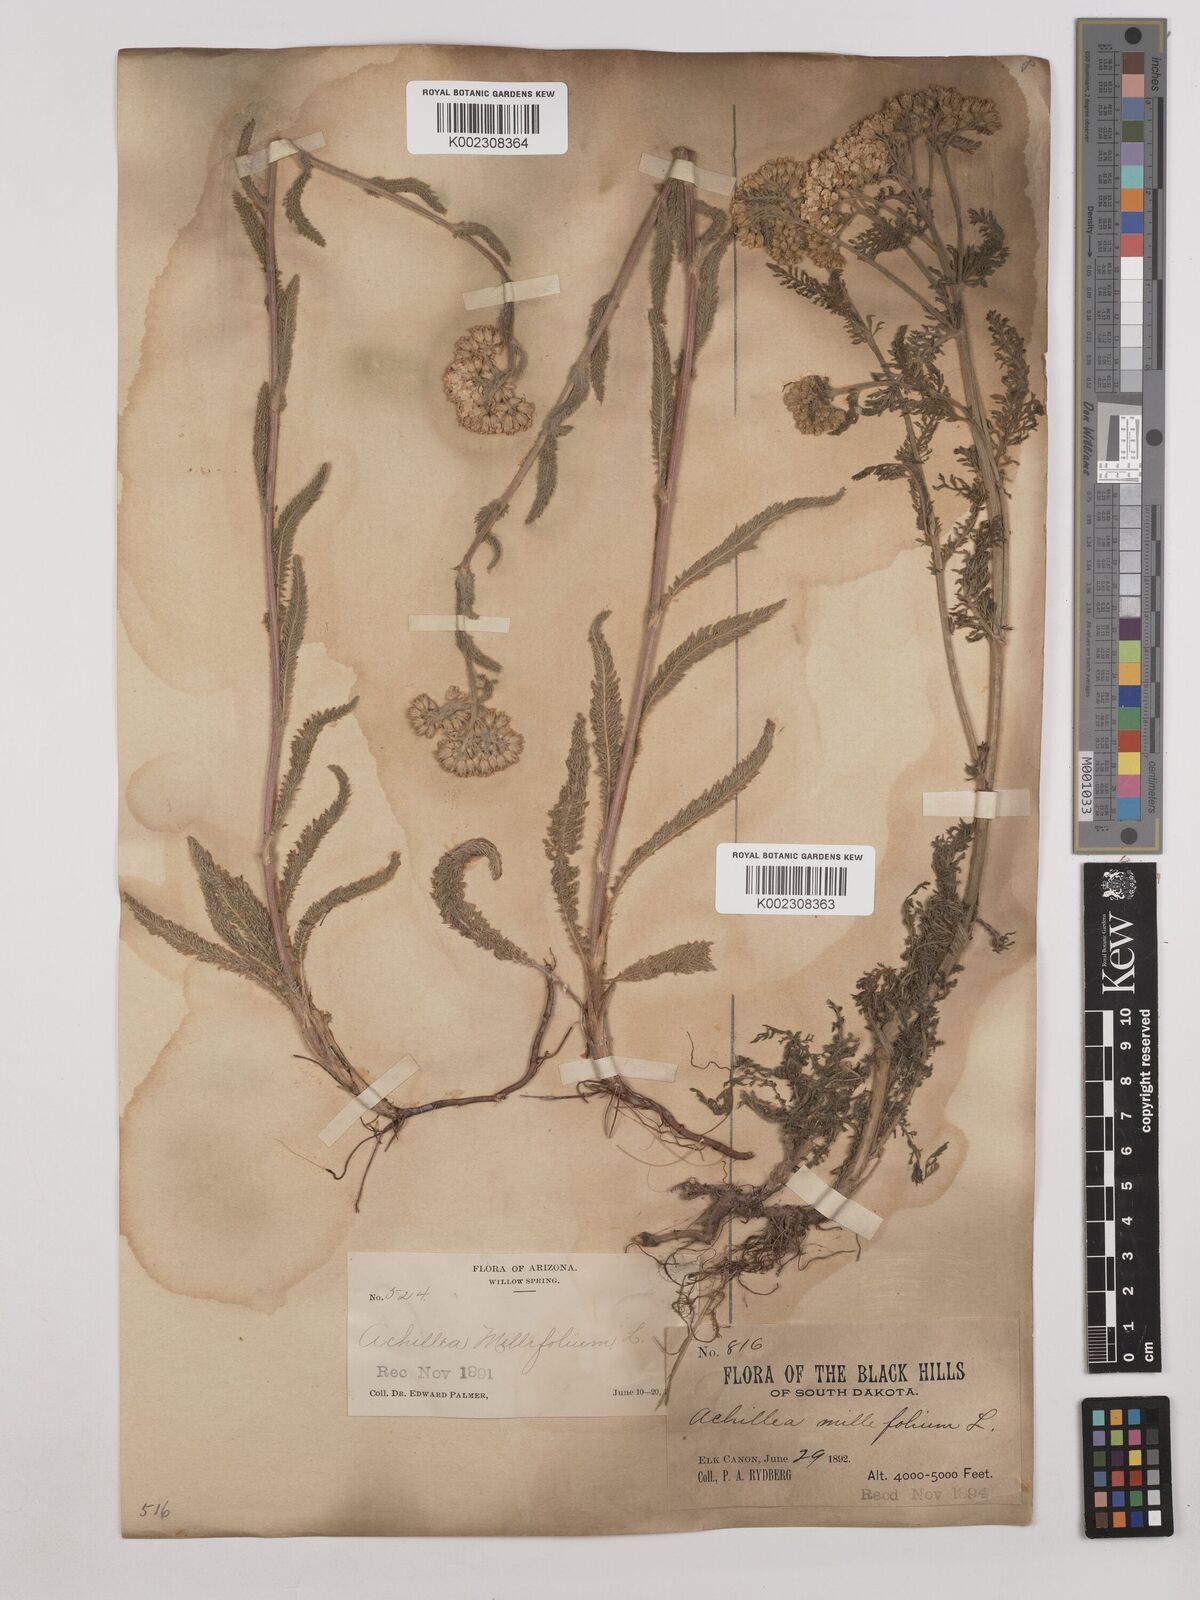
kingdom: Plantae
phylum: Tracheophyta
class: Magnoliopsida
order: Asterales
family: Asteraceae
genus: Achillea
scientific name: Achillea millefolium
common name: Yarrow
